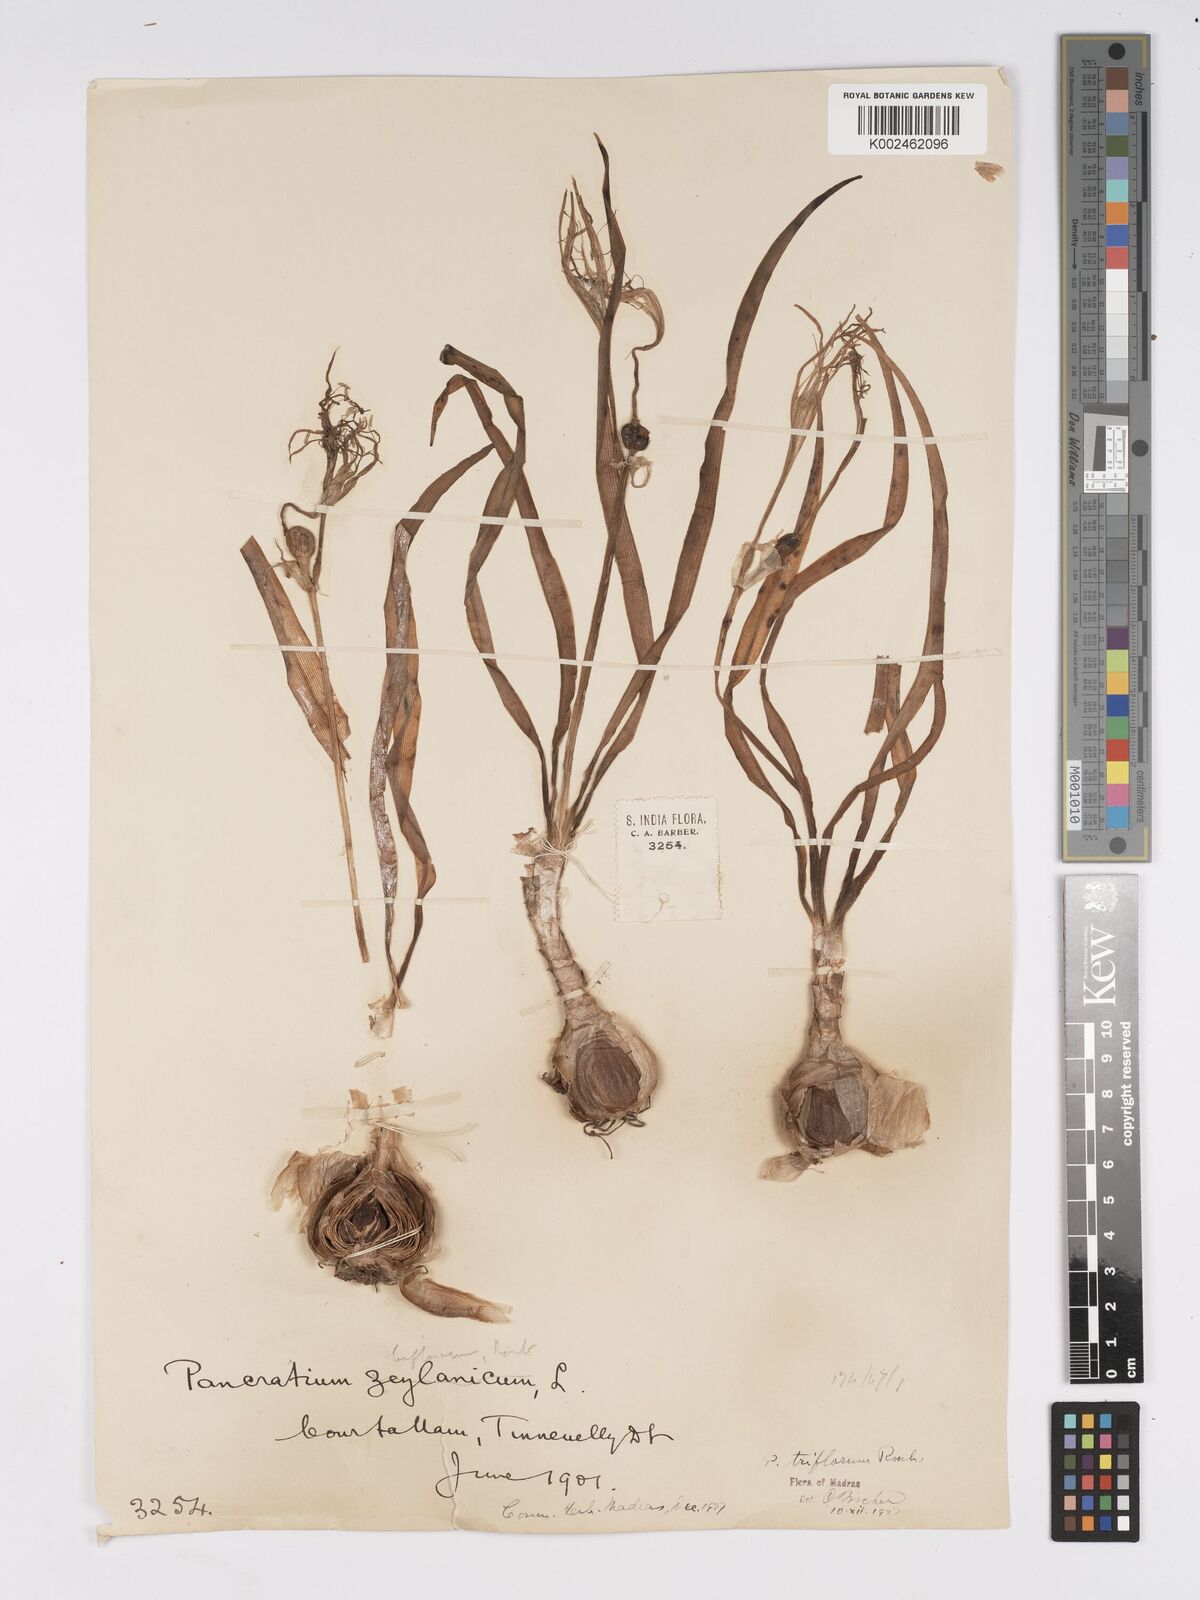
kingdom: Plantae
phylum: Tracheophyta
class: Liliopsida
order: Asparagales
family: Amaryllidaceae
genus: Pancratium
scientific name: Pancratium triflorum
